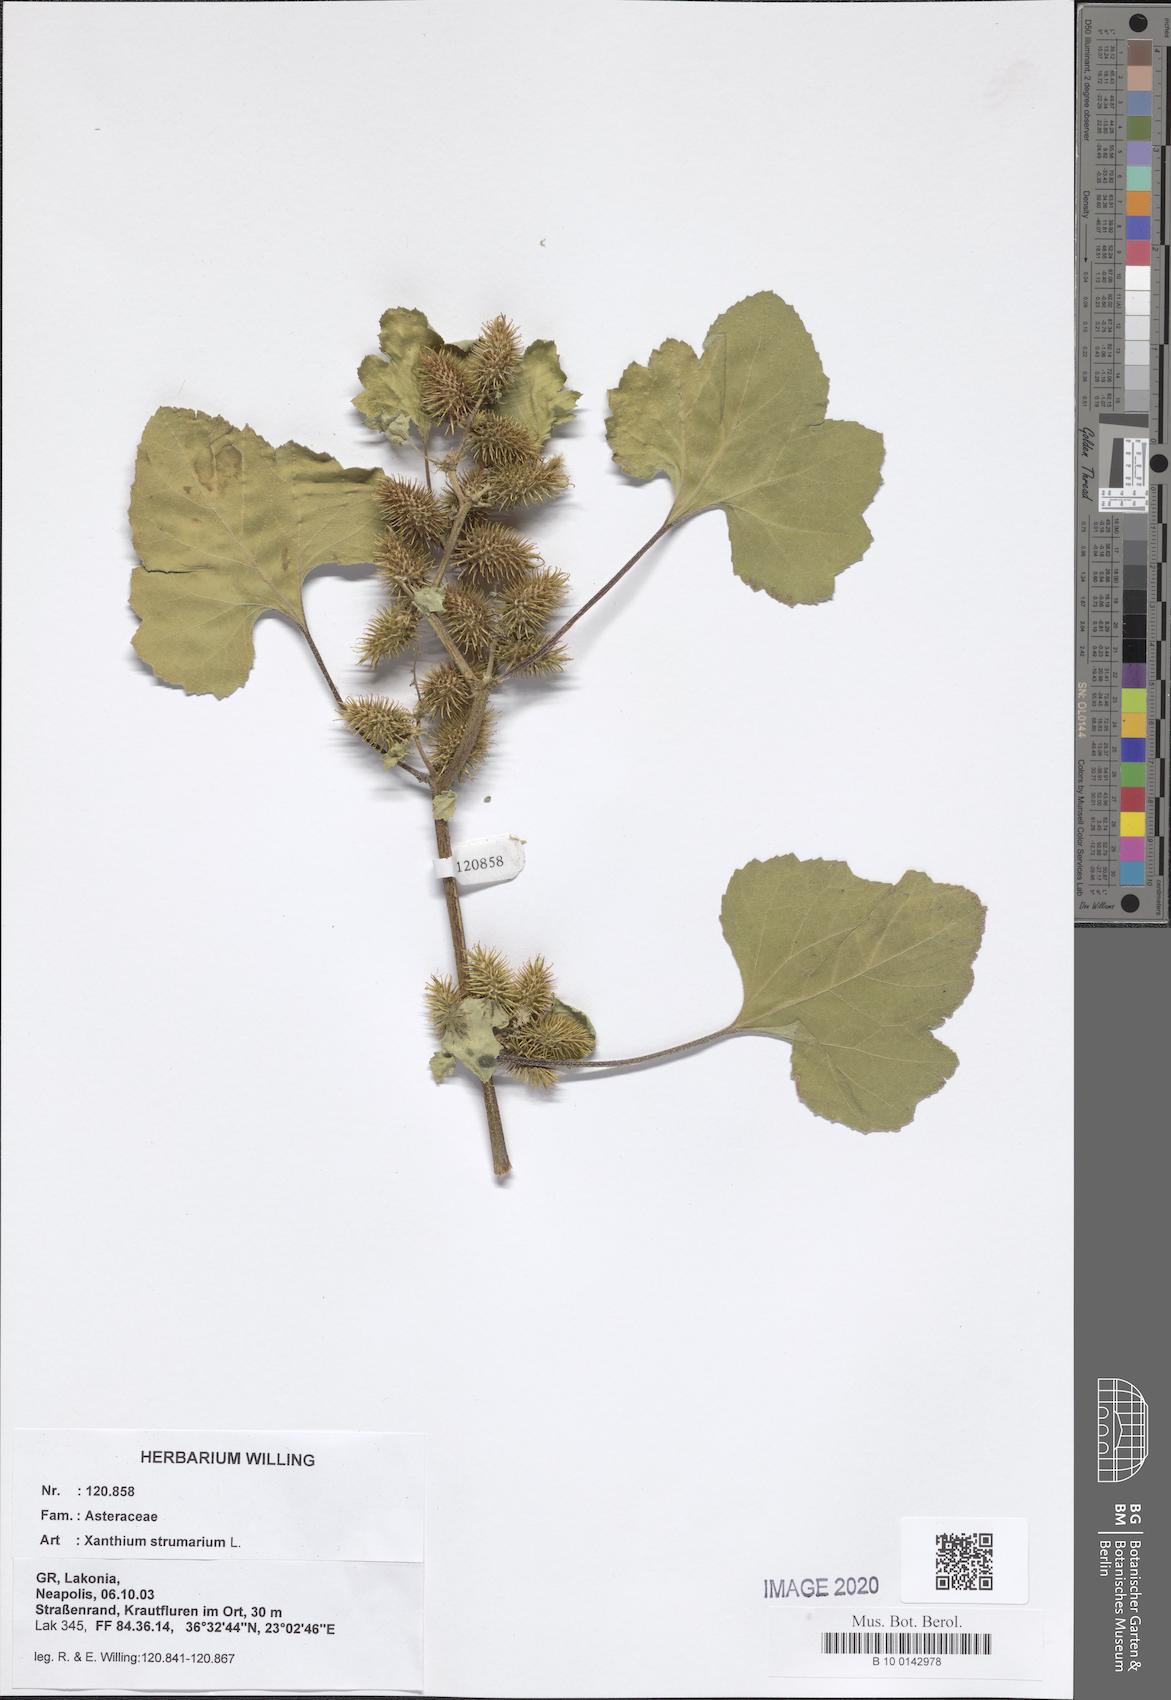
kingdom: Plantae
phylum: Tracheophyta
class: Magnoliopsida
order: Asterales
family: Asteraceae
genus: Xanthium
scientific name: Xanthium strumarium
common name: Rough cocklebur
